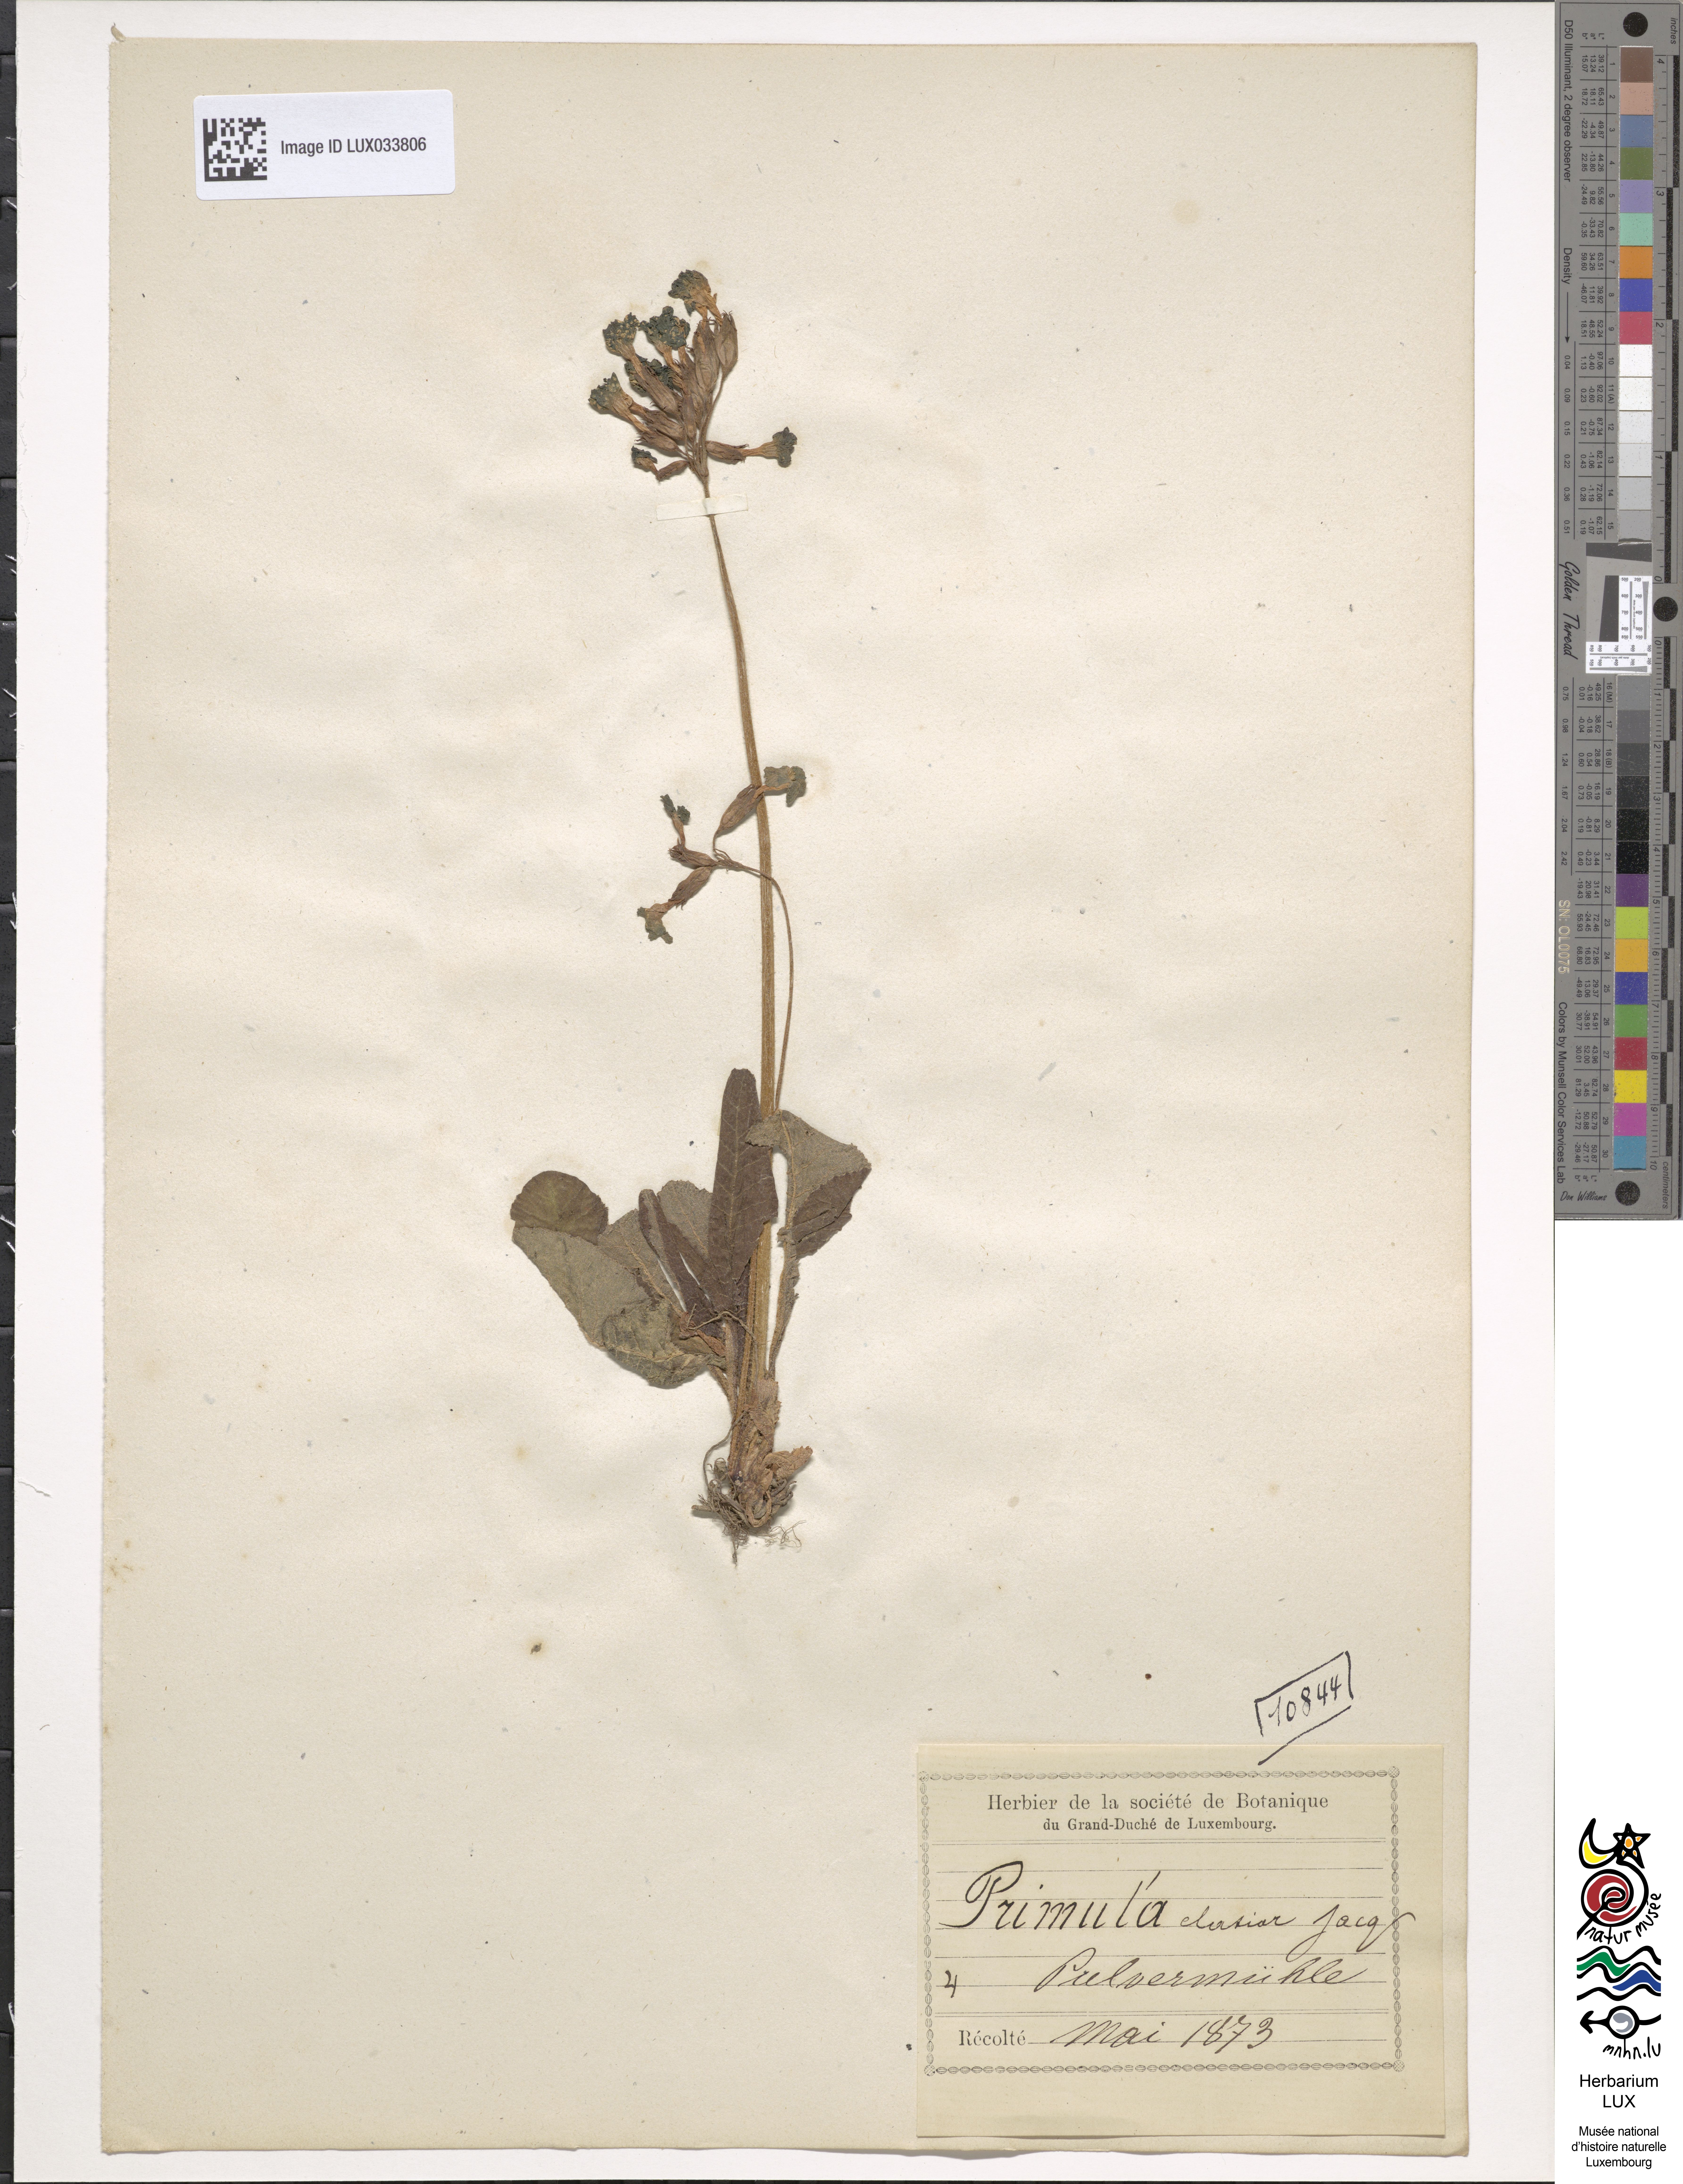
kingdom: Plantae
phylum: Tracheophyta
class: Magnoliopsida
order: Ericales
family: Primulaceae
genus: Primula
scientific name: Primula elatior
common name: Oxlip
